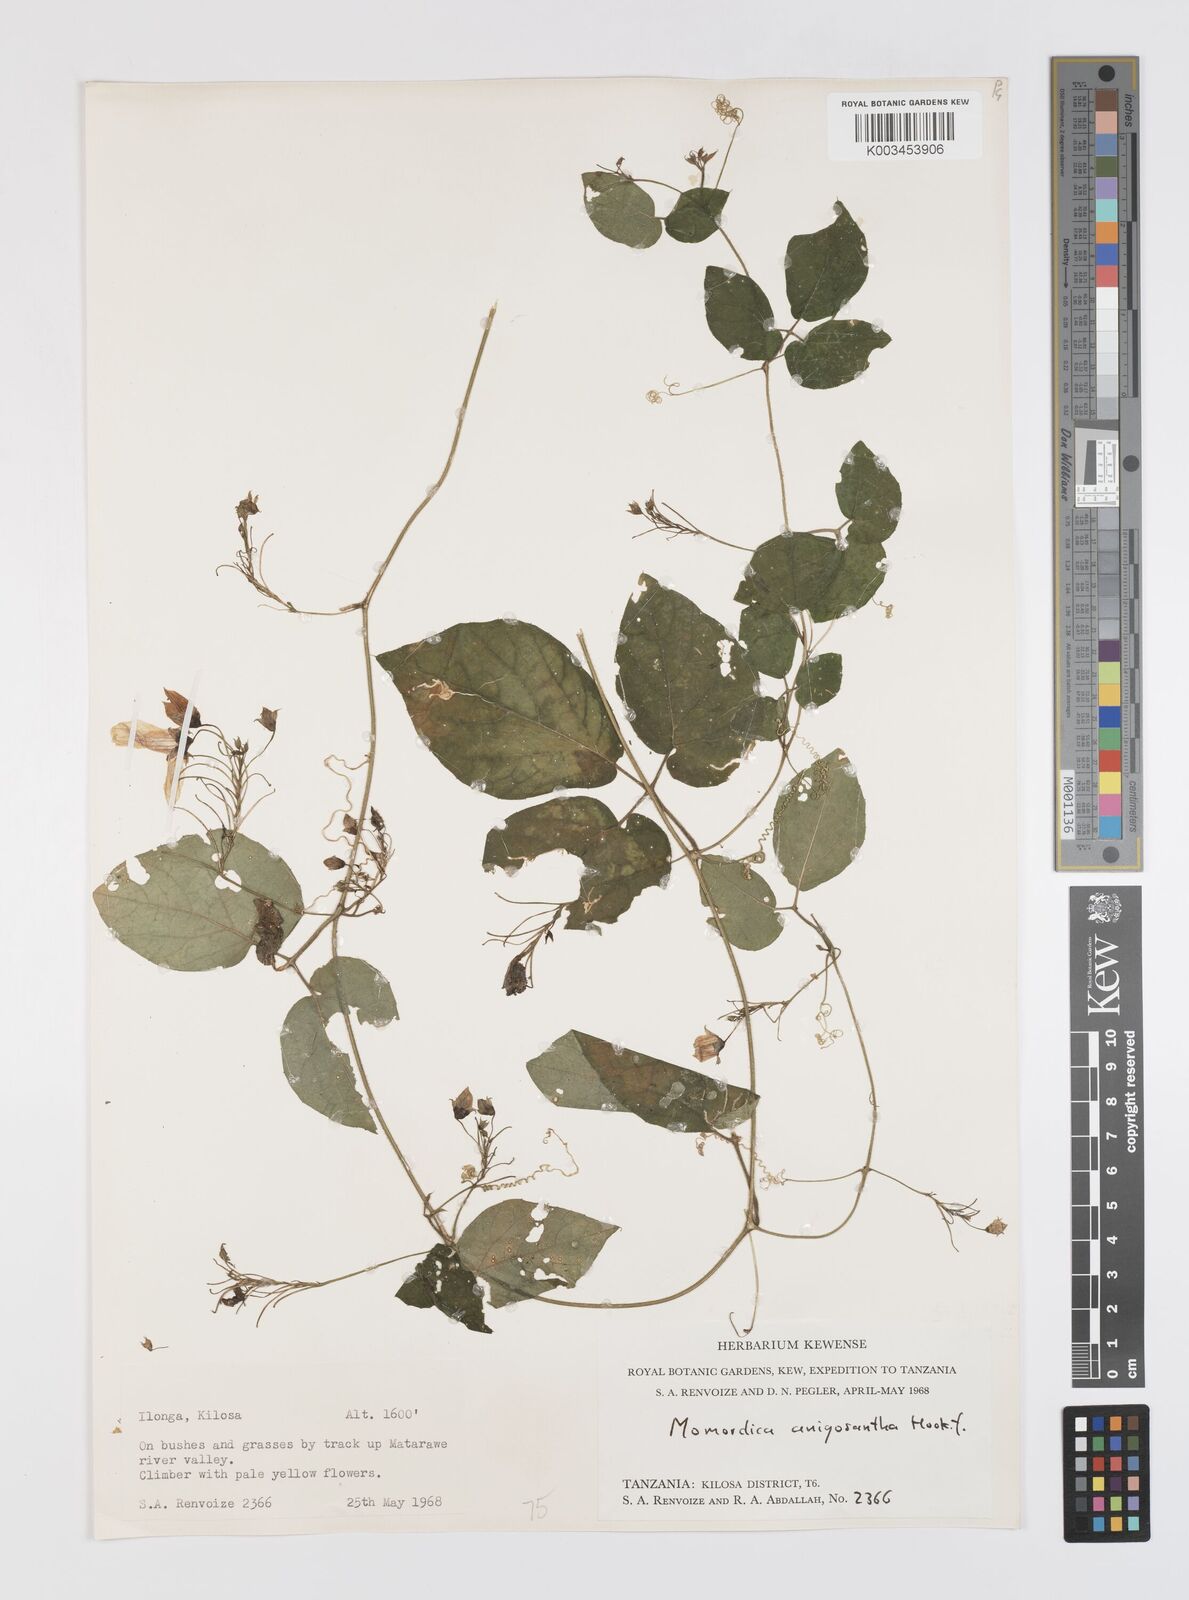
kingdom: Plantae
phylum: Tracheophyta
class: Magnoliopsida
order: Cucurbitales
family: Cucurbitaceae
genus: Momordica
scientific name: Momordica anigosantha
